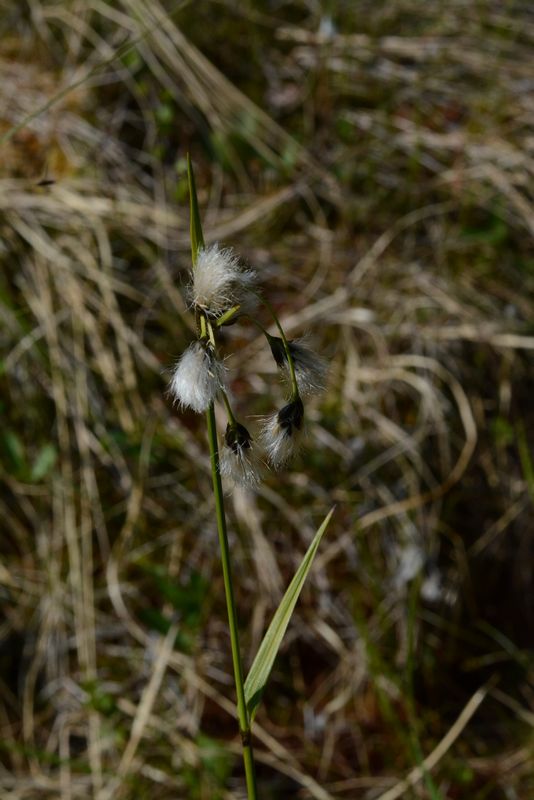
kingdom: Plantae
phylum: Tracheophyta
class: Liliopsida
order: Poales
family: Cyperaceae
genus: Eriophorum
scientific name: Eriophorum latifolium
